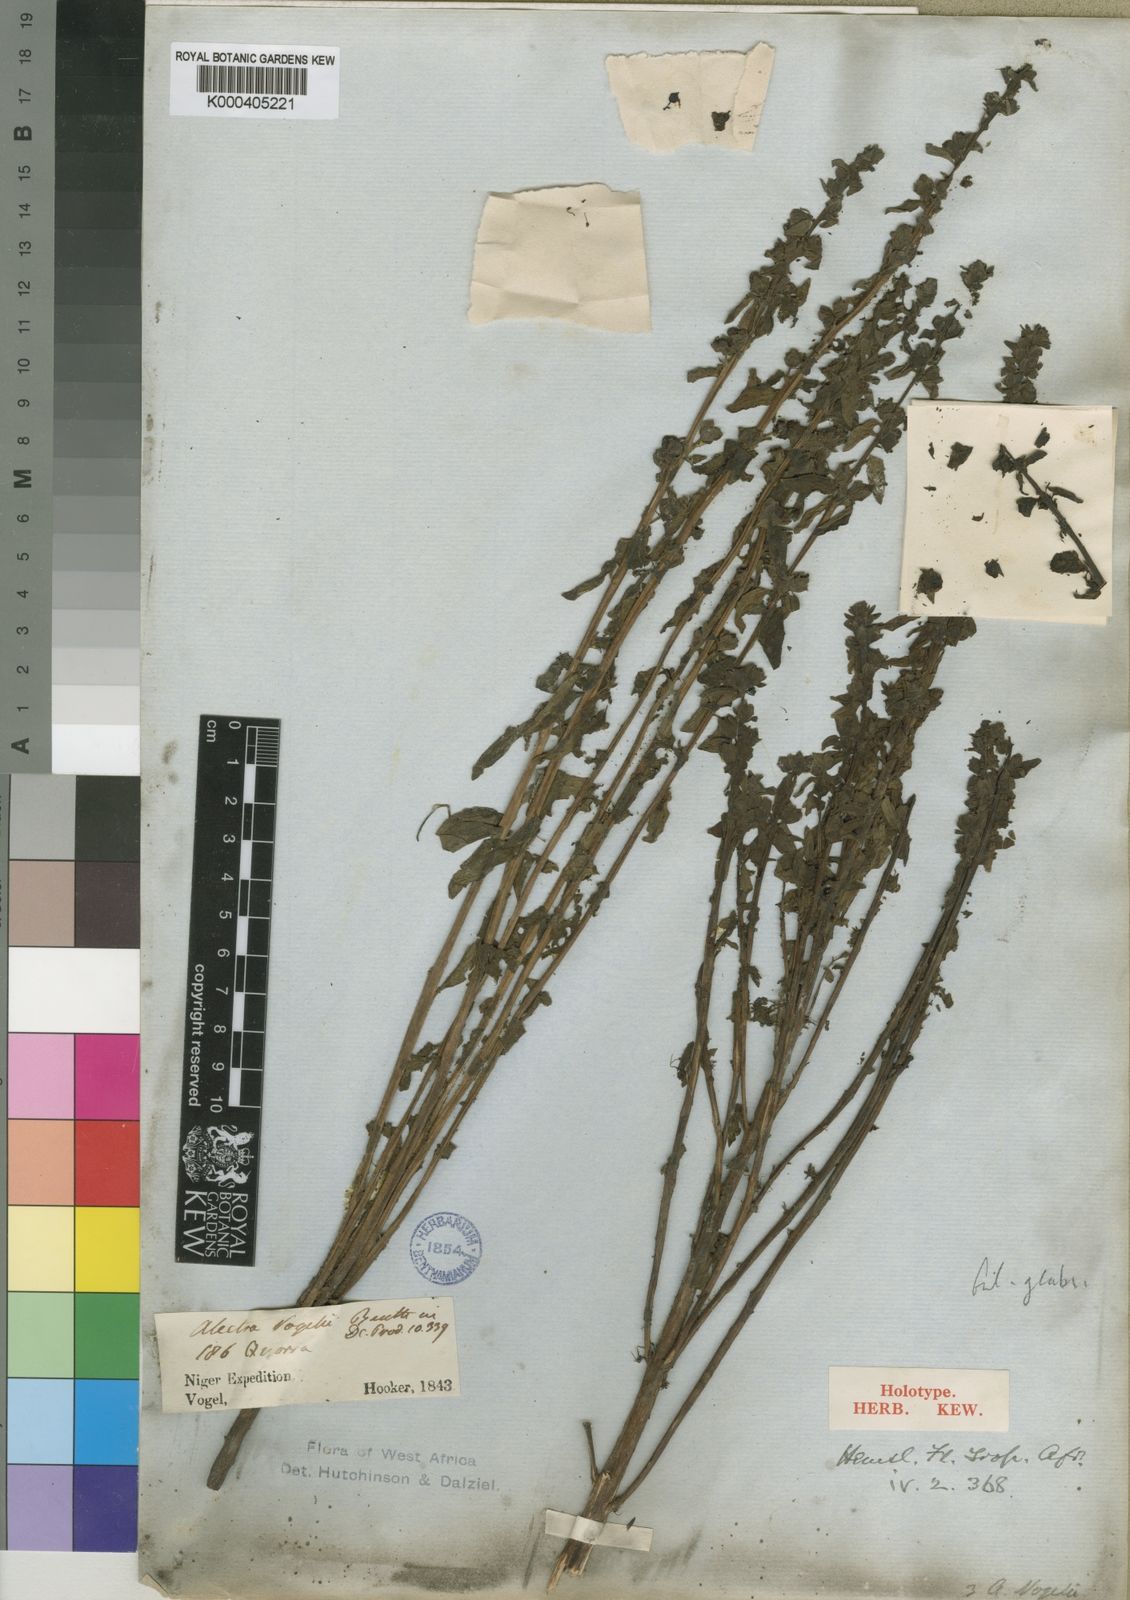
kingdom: Plantae
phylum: Tracheophyta
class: Magnoliopsida
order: Lamiales
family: Orobanchaceae
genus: Alectra
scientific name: Alectra vogelii
